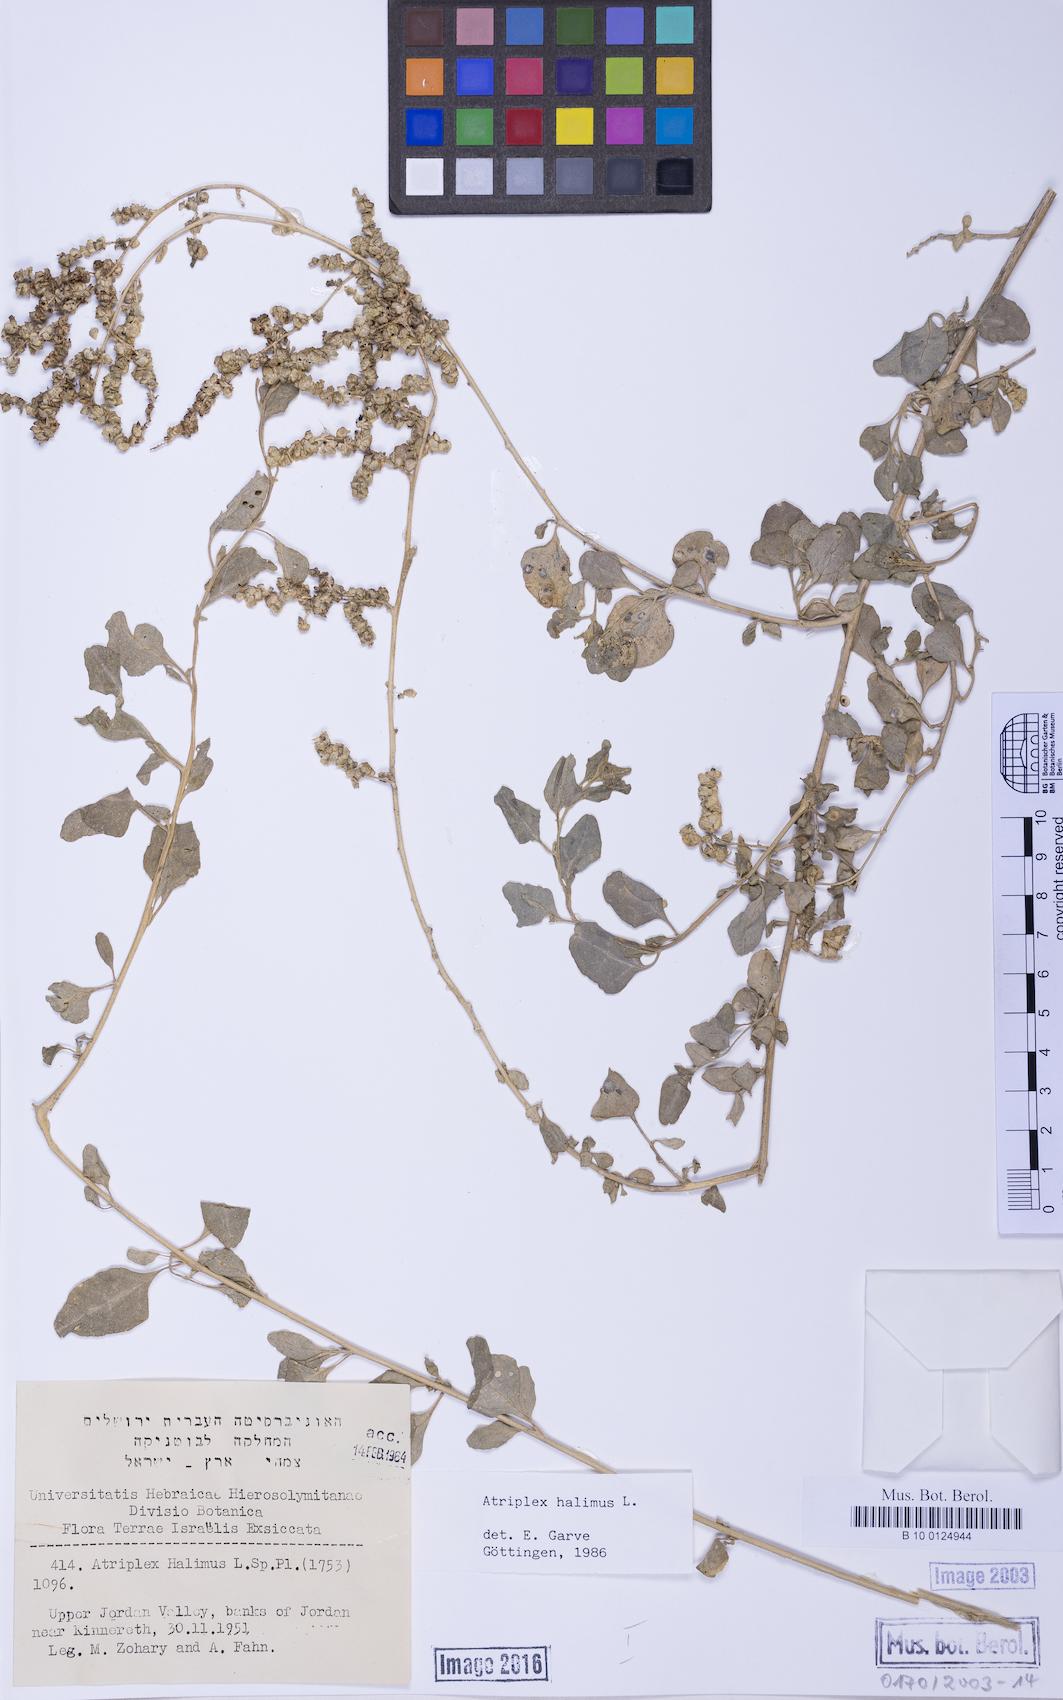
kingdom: Plantae
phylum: Tracheophyta
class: Magnoliopsida
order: Caryophyllales
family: Amaranthaceae
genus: Atriplex
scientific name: Atriplex halimus
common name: Shrubby orache
